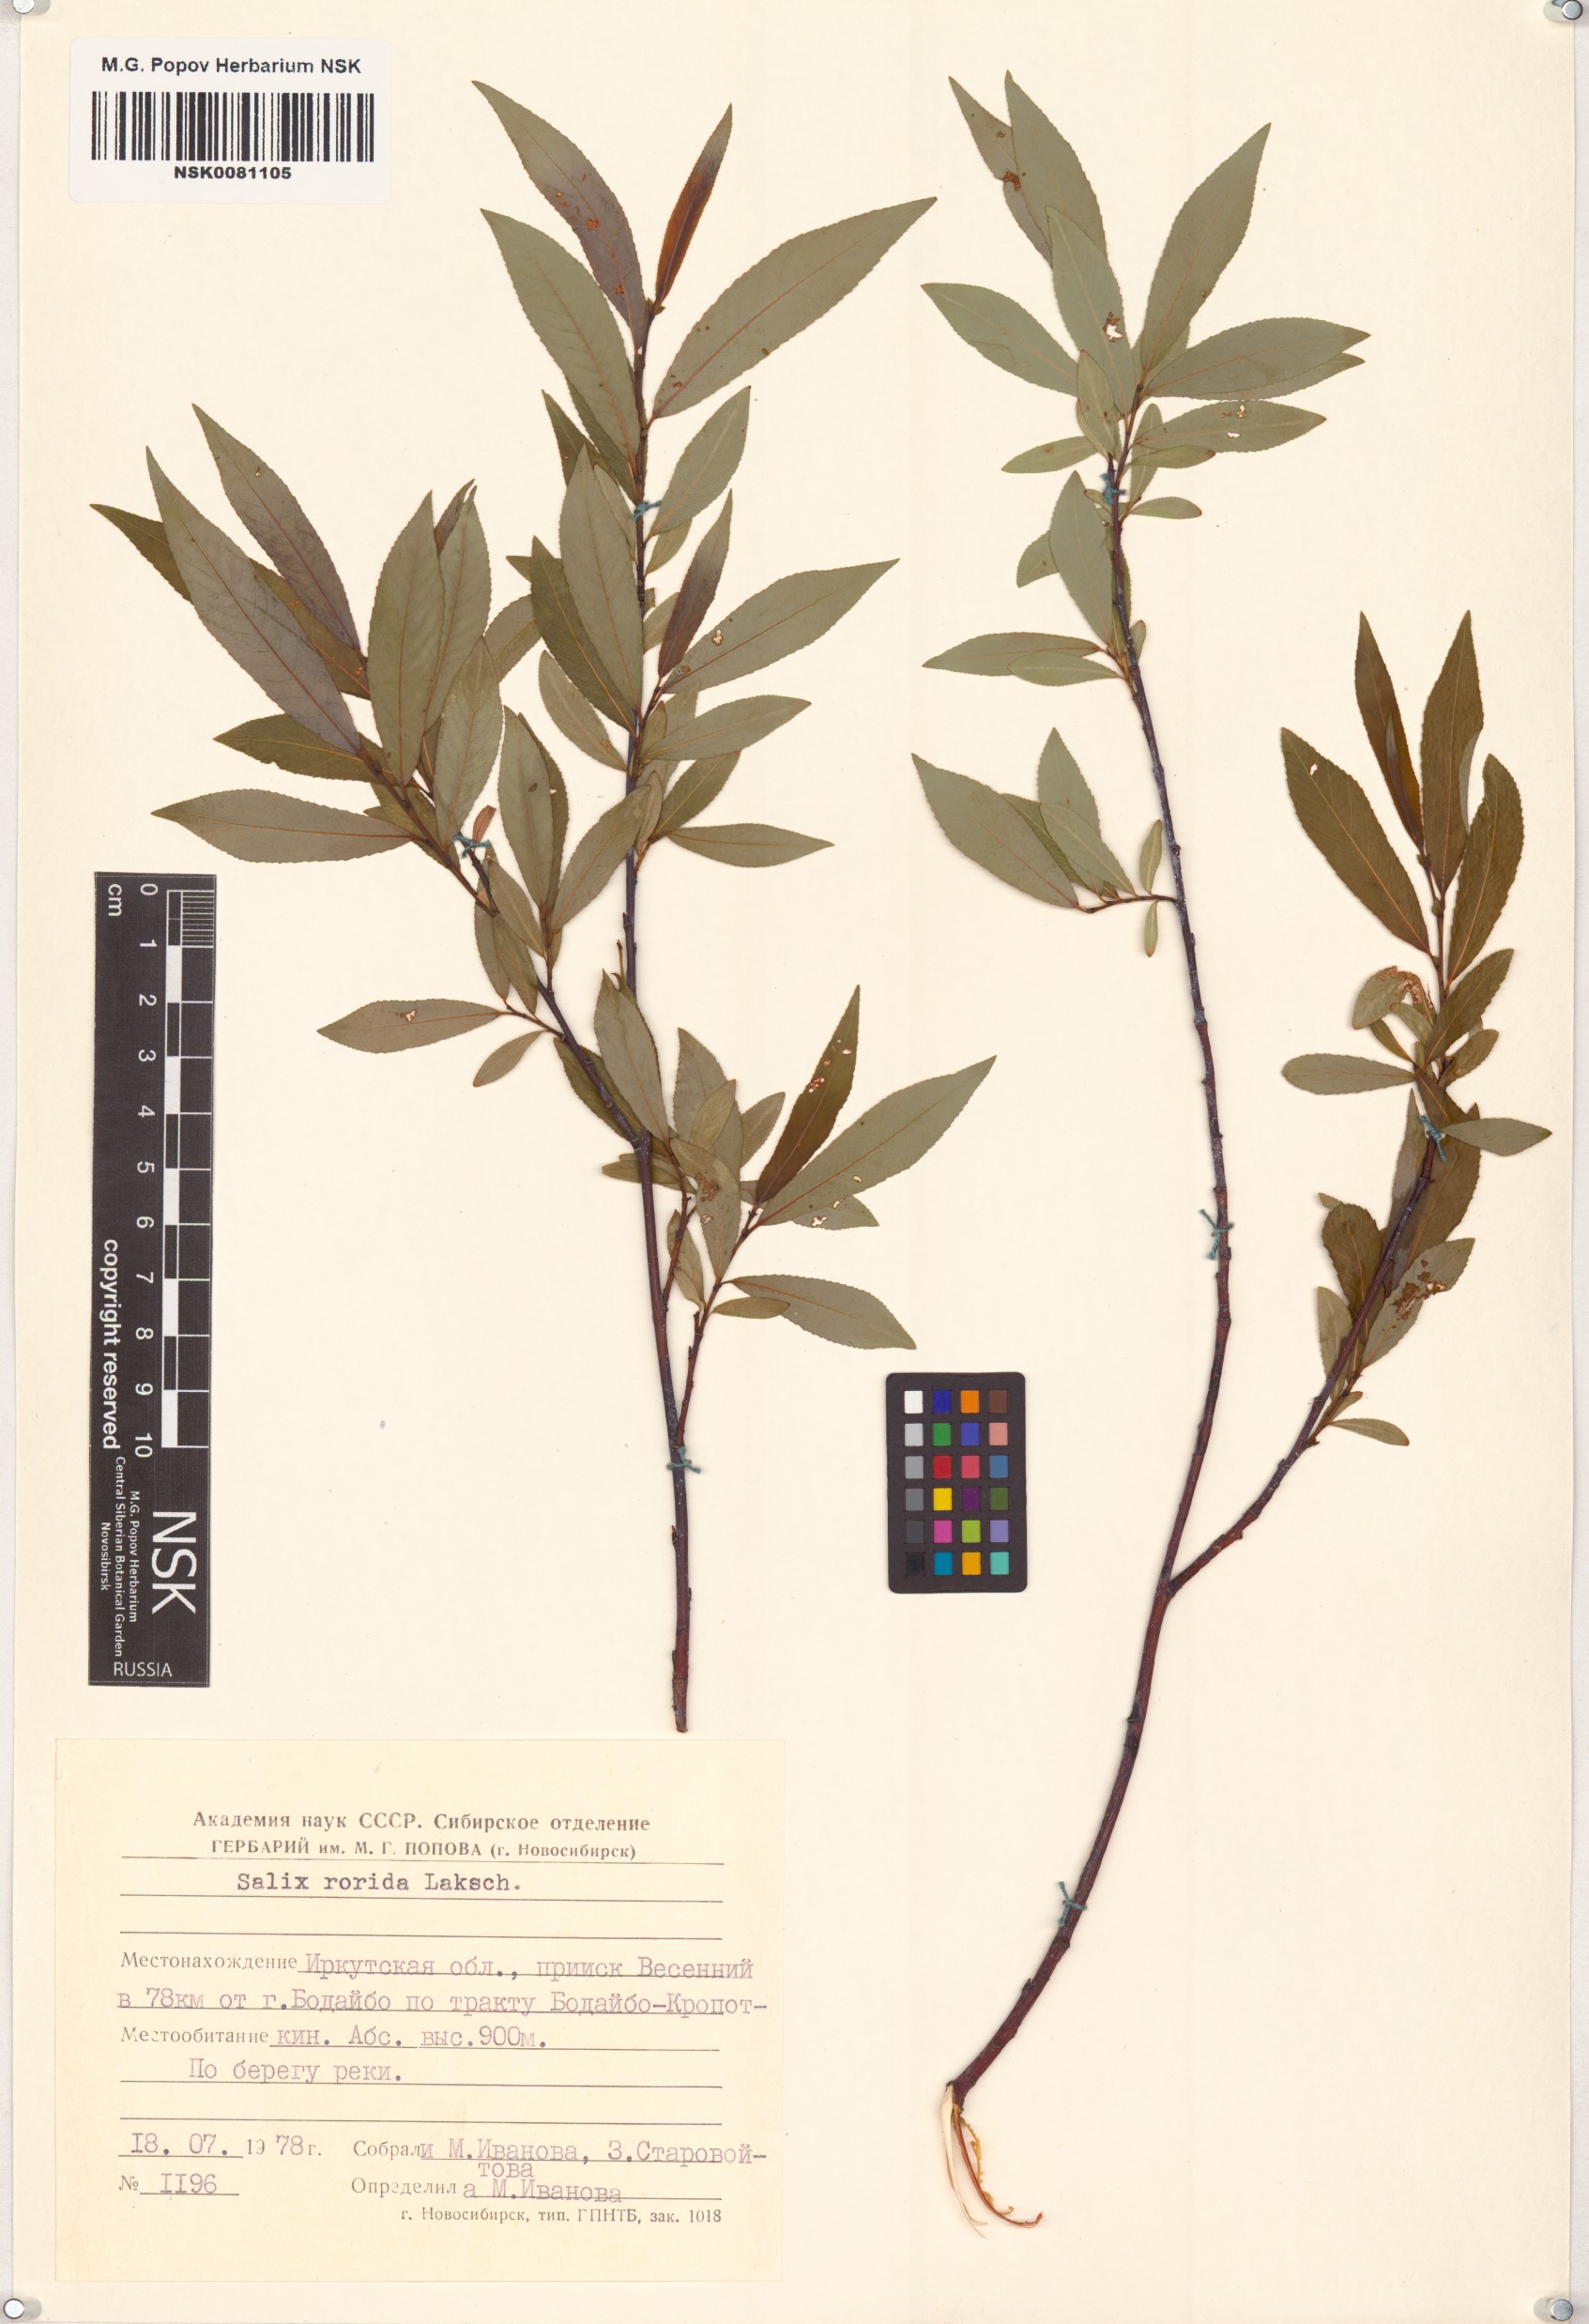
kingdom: Plantae
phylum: Tracheophyta
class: Magnoliopsida
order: Malpighiales
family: Salicaceae
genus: Salix
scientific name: Salix rorida
